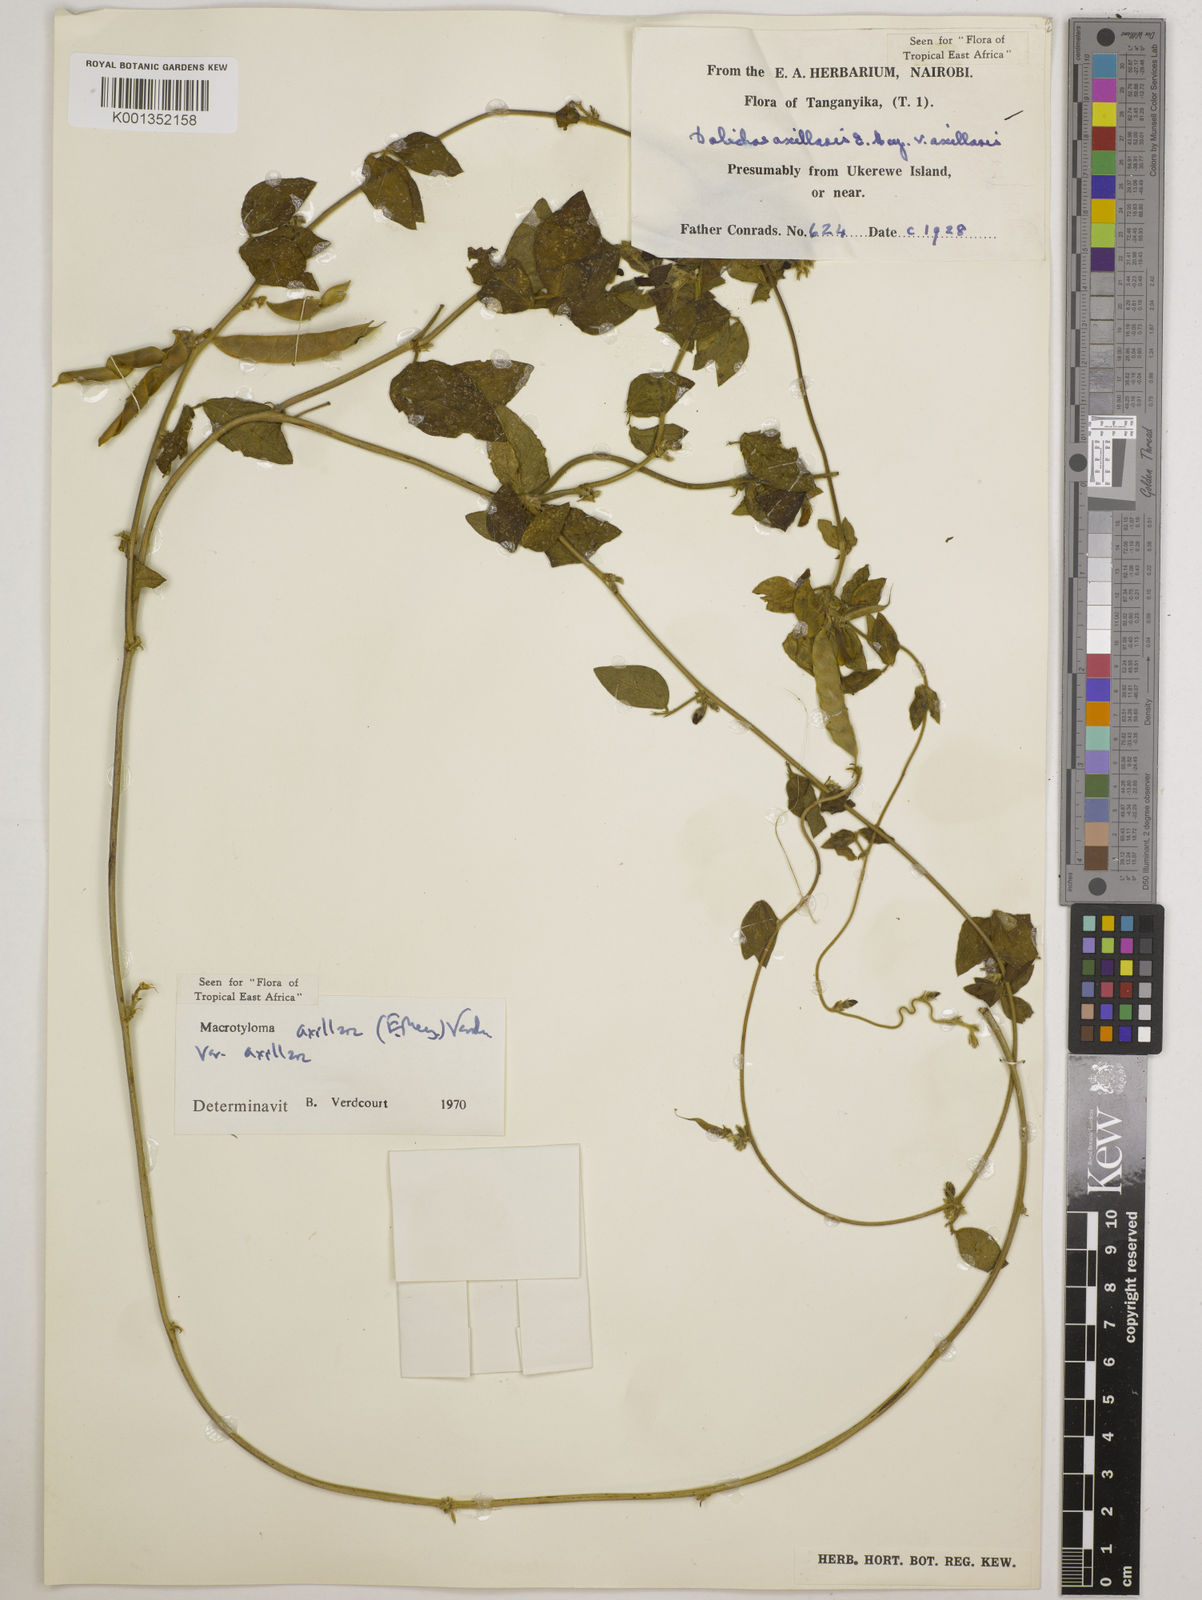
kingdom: Plantae
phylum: Tracheophyta
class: Magnoliopsida
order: Fabales
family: Fabaceae
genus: Macrotyloma
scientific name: Macrotyloma axillare
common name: Perennial horsegram
